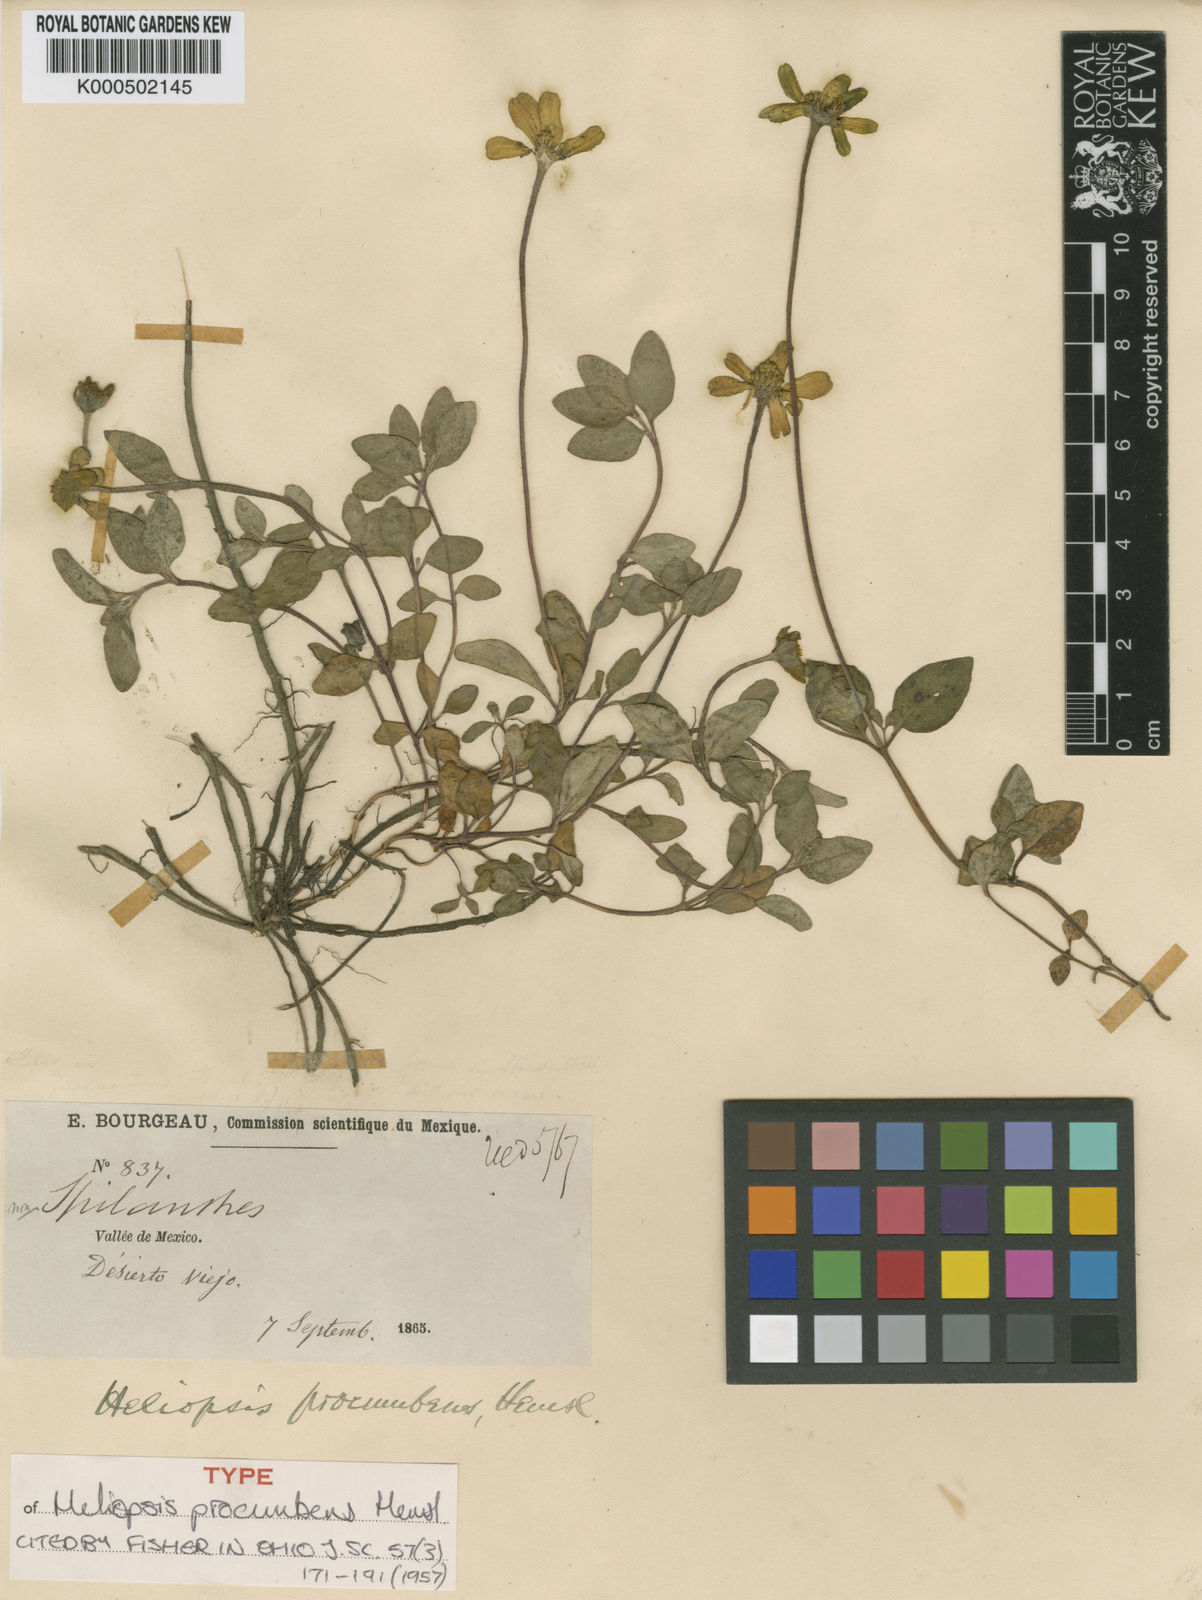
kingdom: Plantae
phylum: Tracheophyta
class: Magnoliopsida
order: Asterales
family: Asteraceae
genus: Heliopsis
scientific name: Heliopsis procumbens
